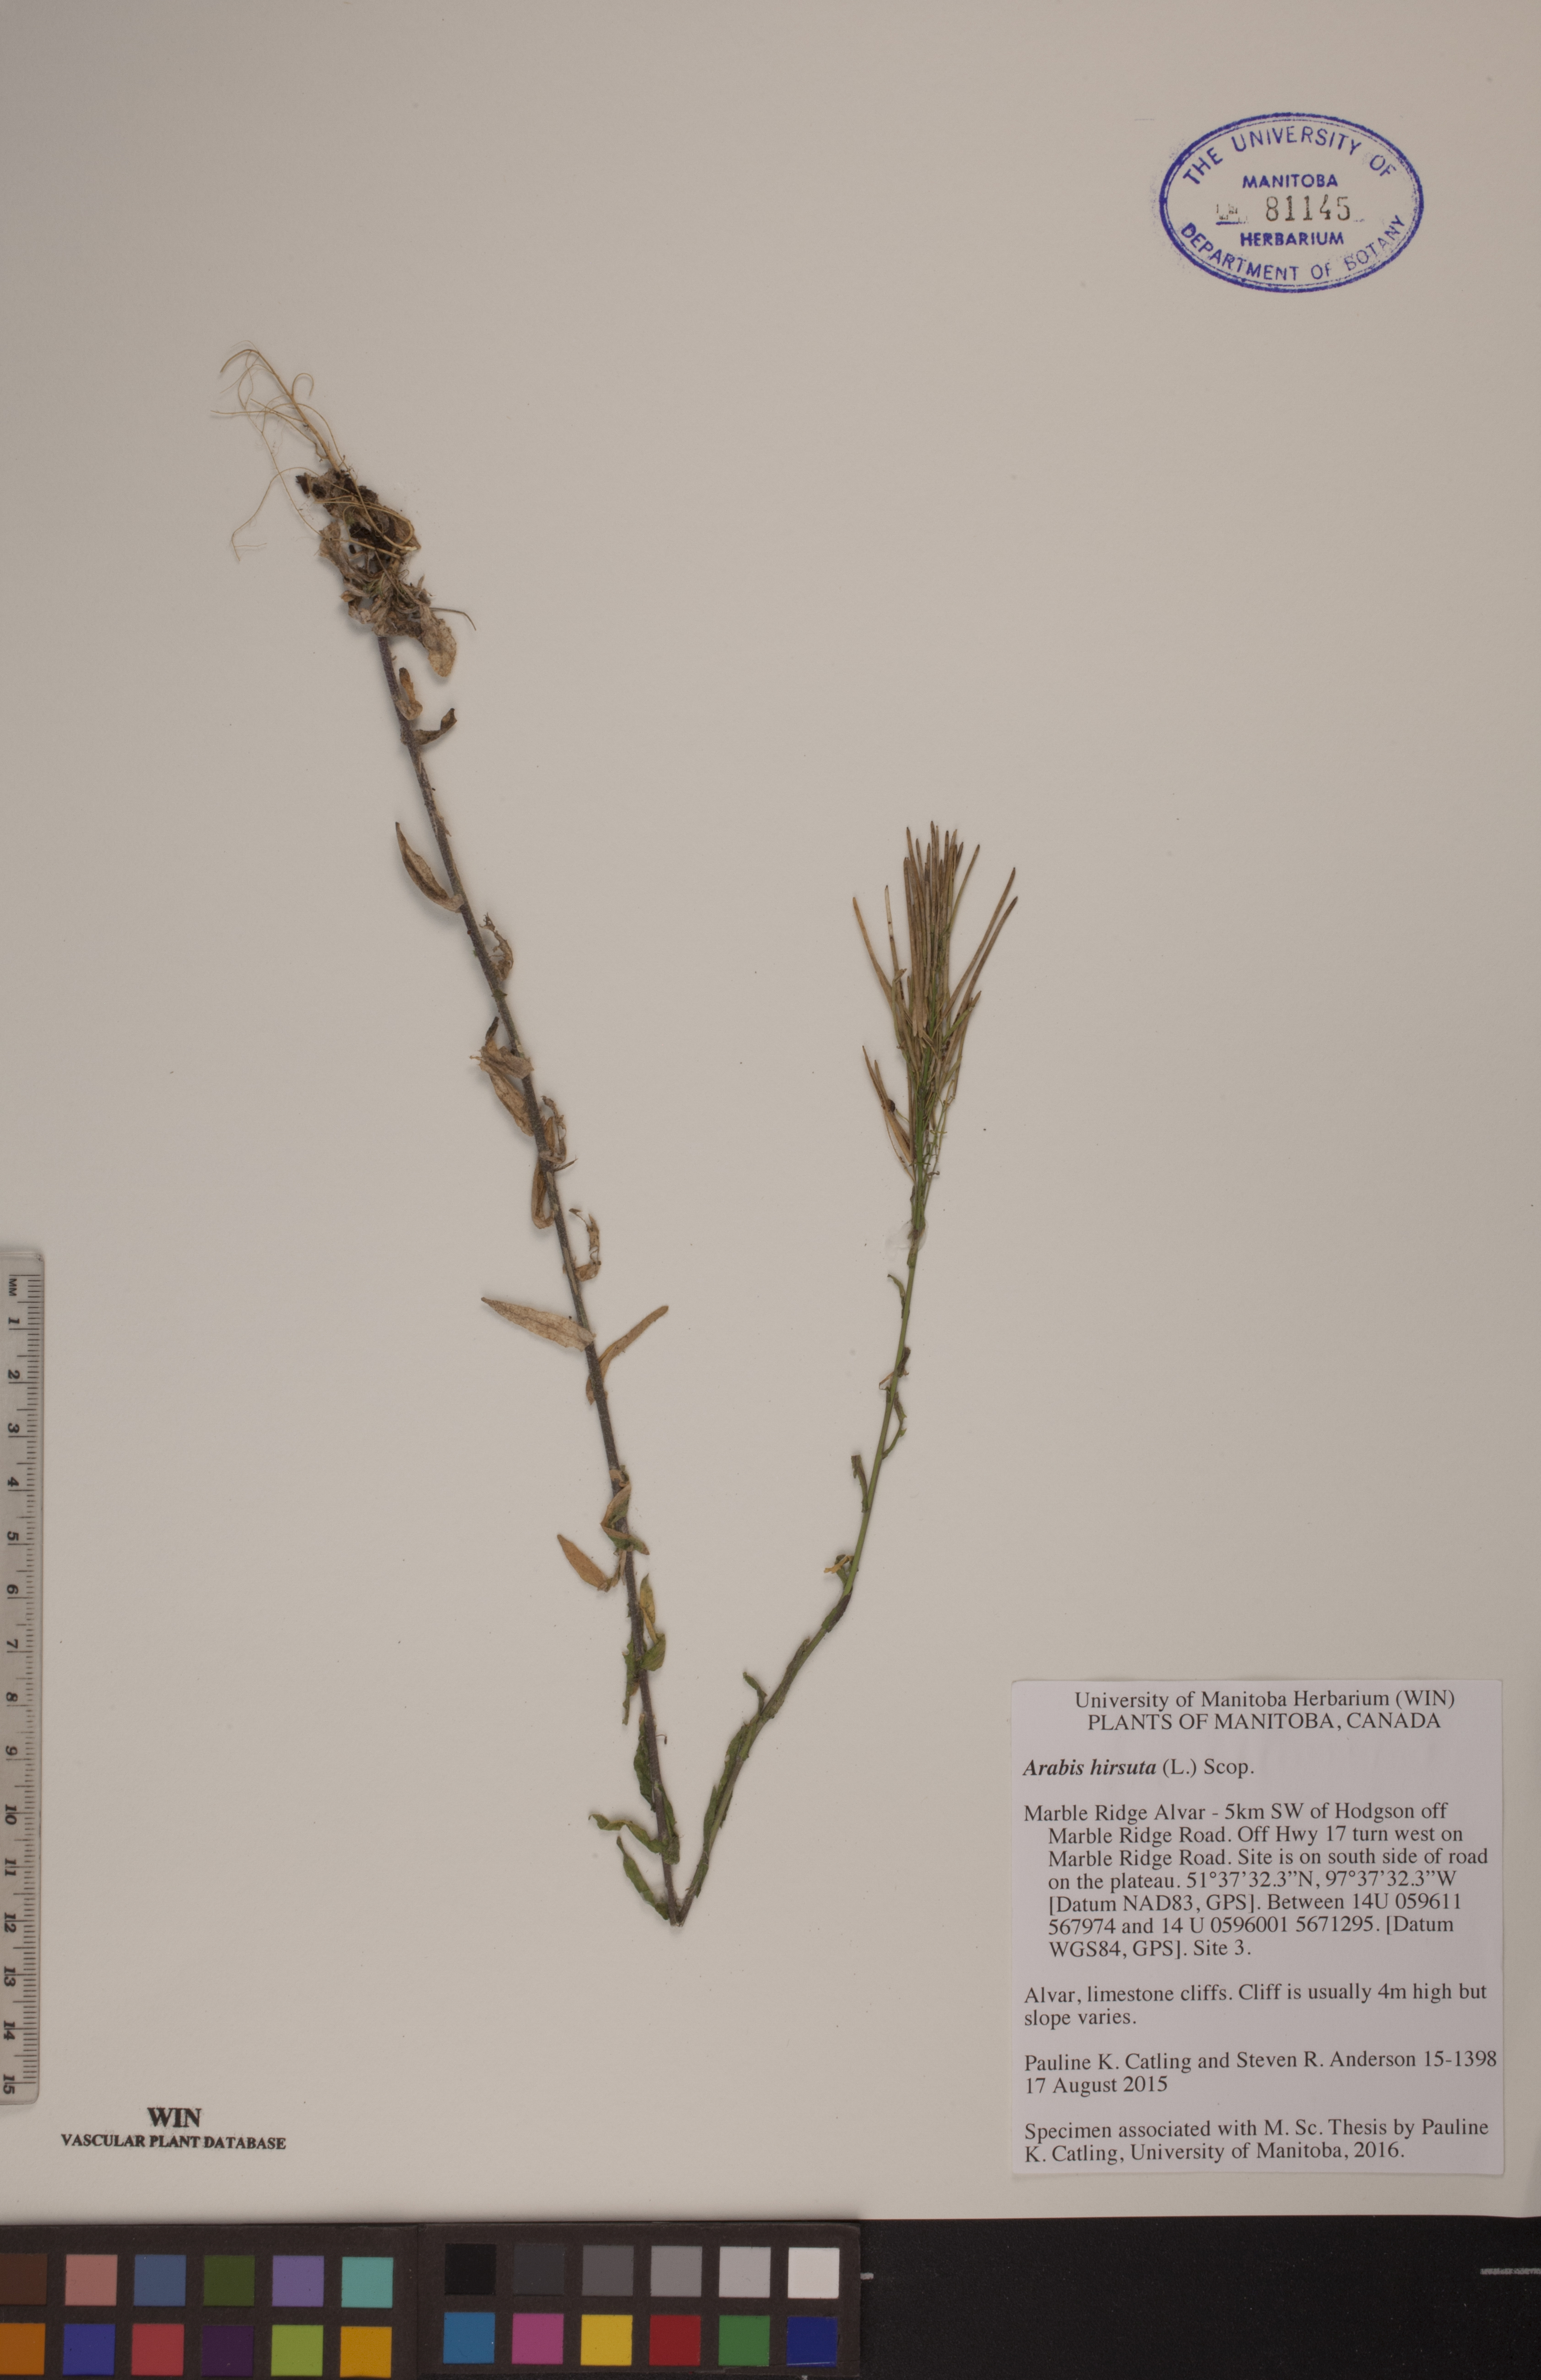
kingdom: Plantae
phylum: Tracheophyta
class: Magnoliopsida
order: Brassicales
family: Brassicaceae
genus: Arabis
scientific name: Arabis hirsuta
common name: Hairy rock-cress
